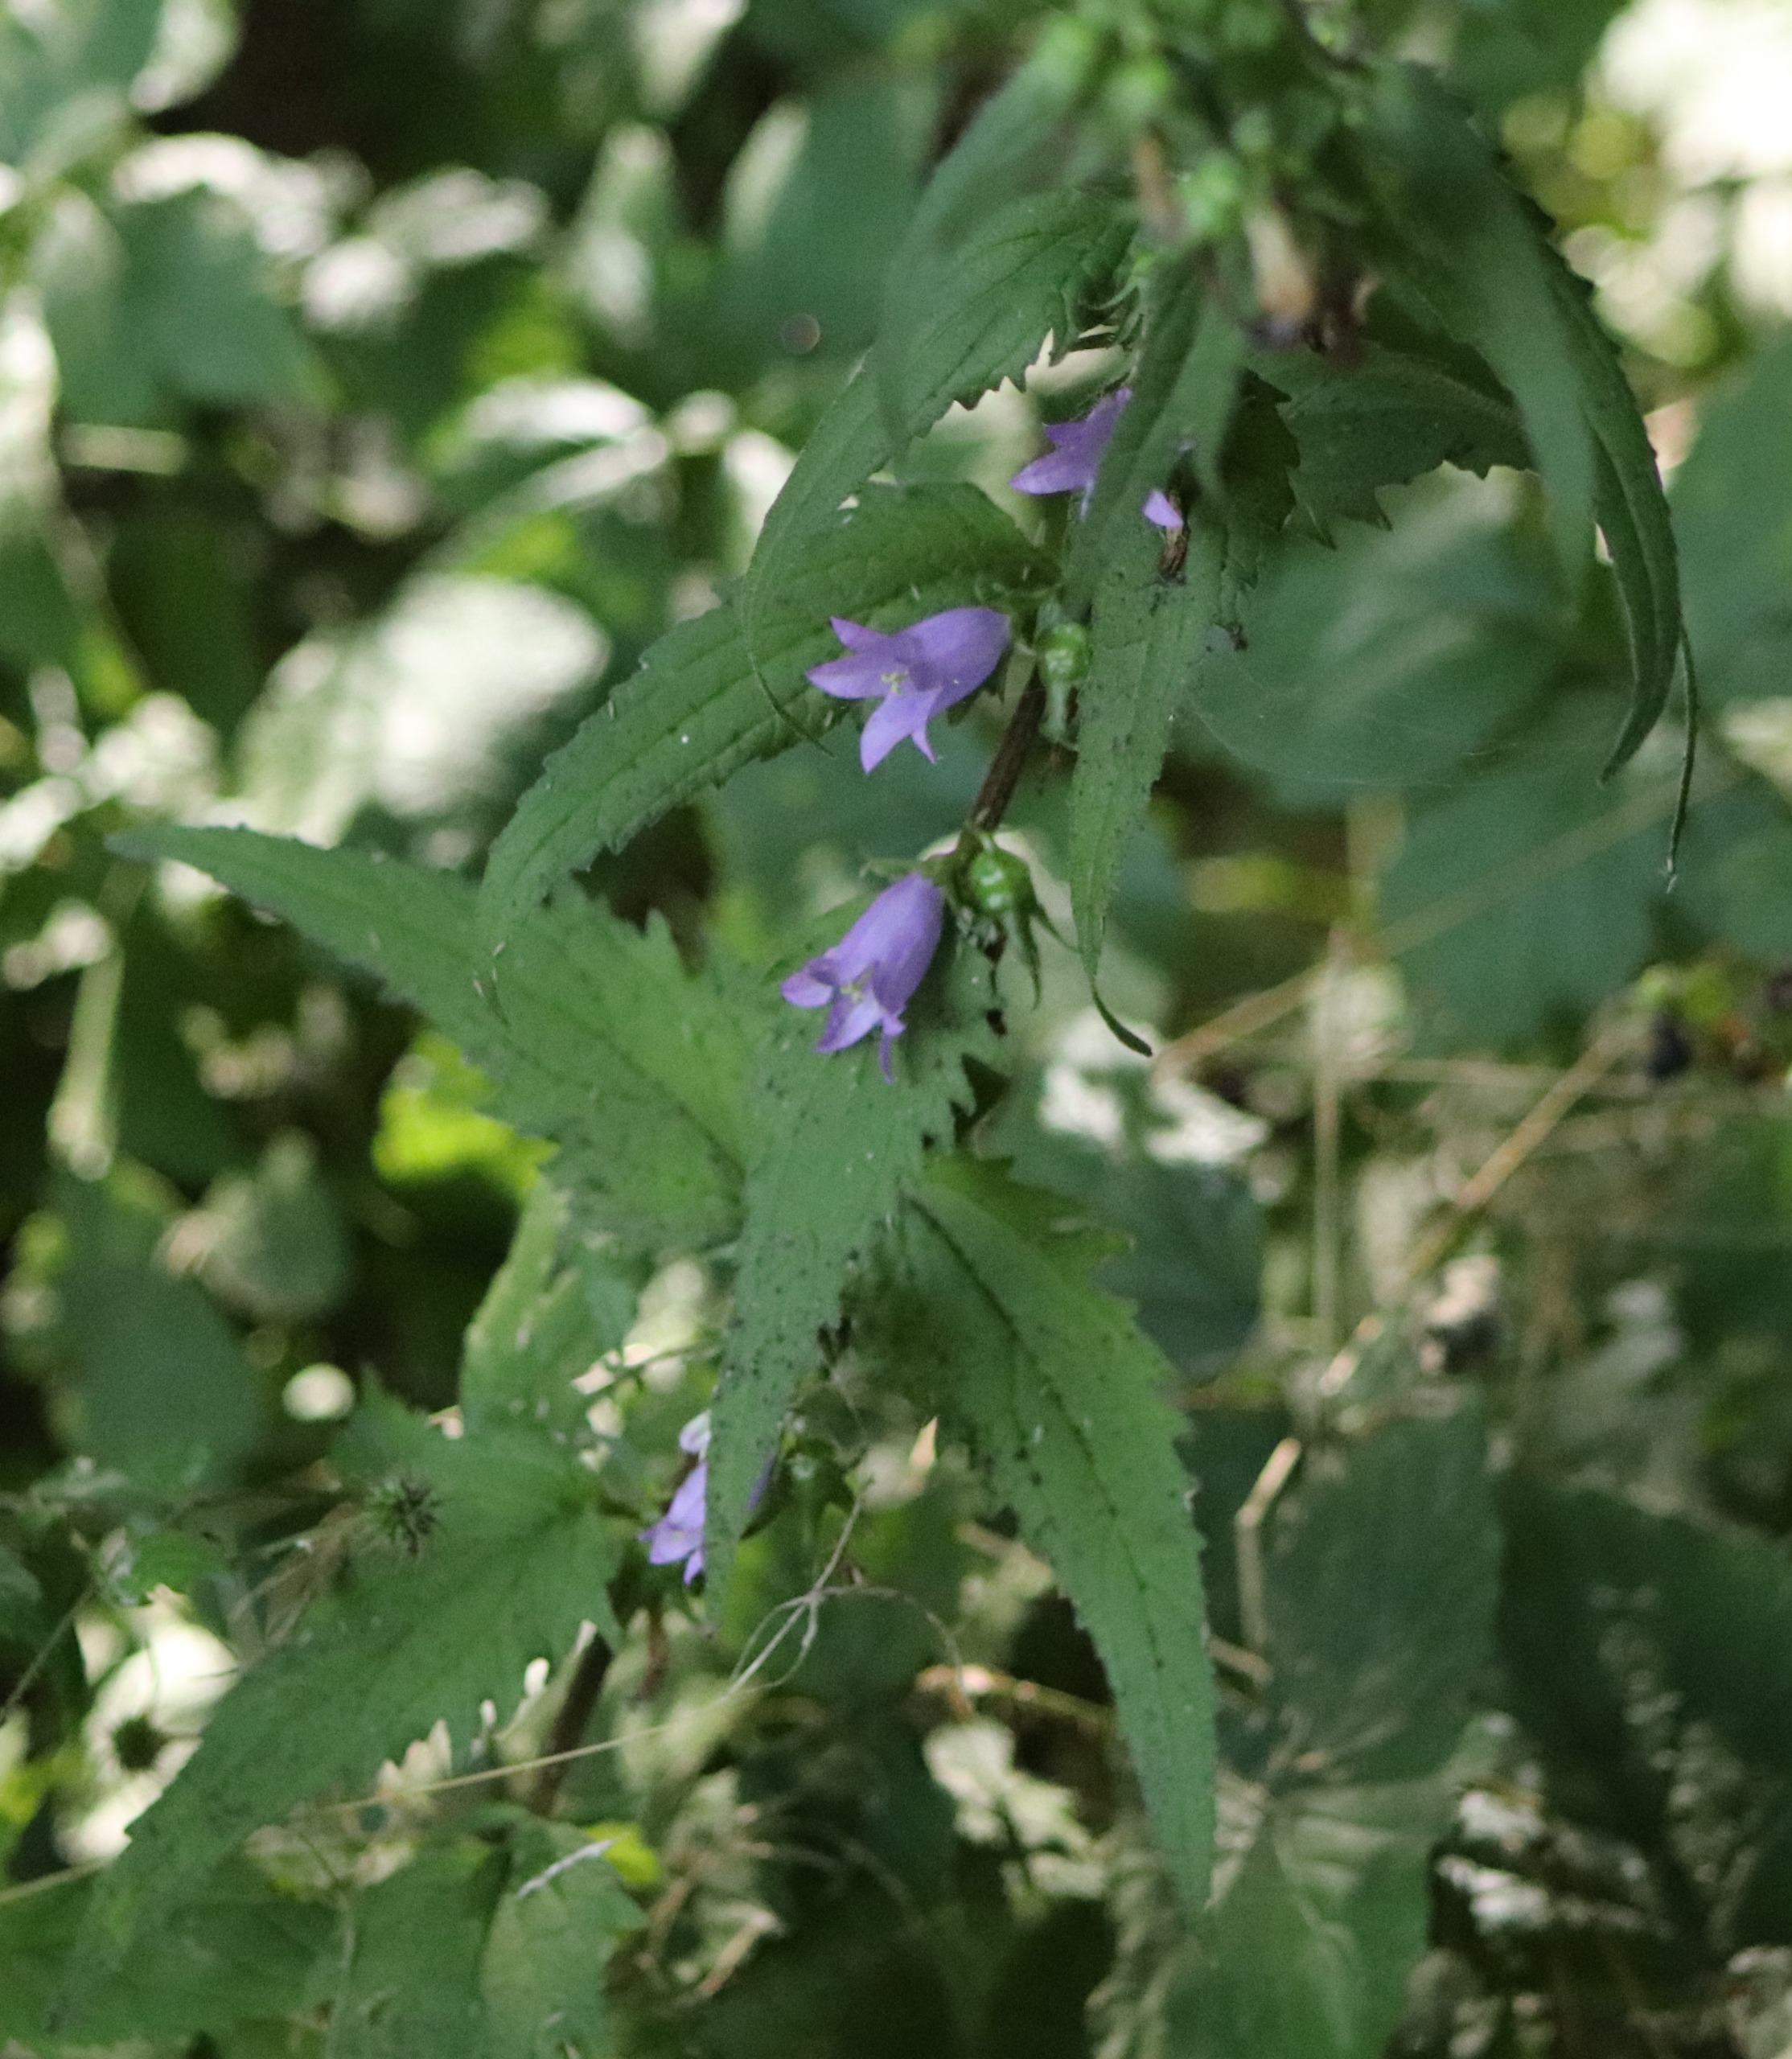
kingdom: Plantae
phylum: Tracheophyta
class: Magnoliopsida
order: Asterales
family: Campanulaceae
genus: Campanula
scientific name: Campanula trachelium
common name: Nælde-klokke
